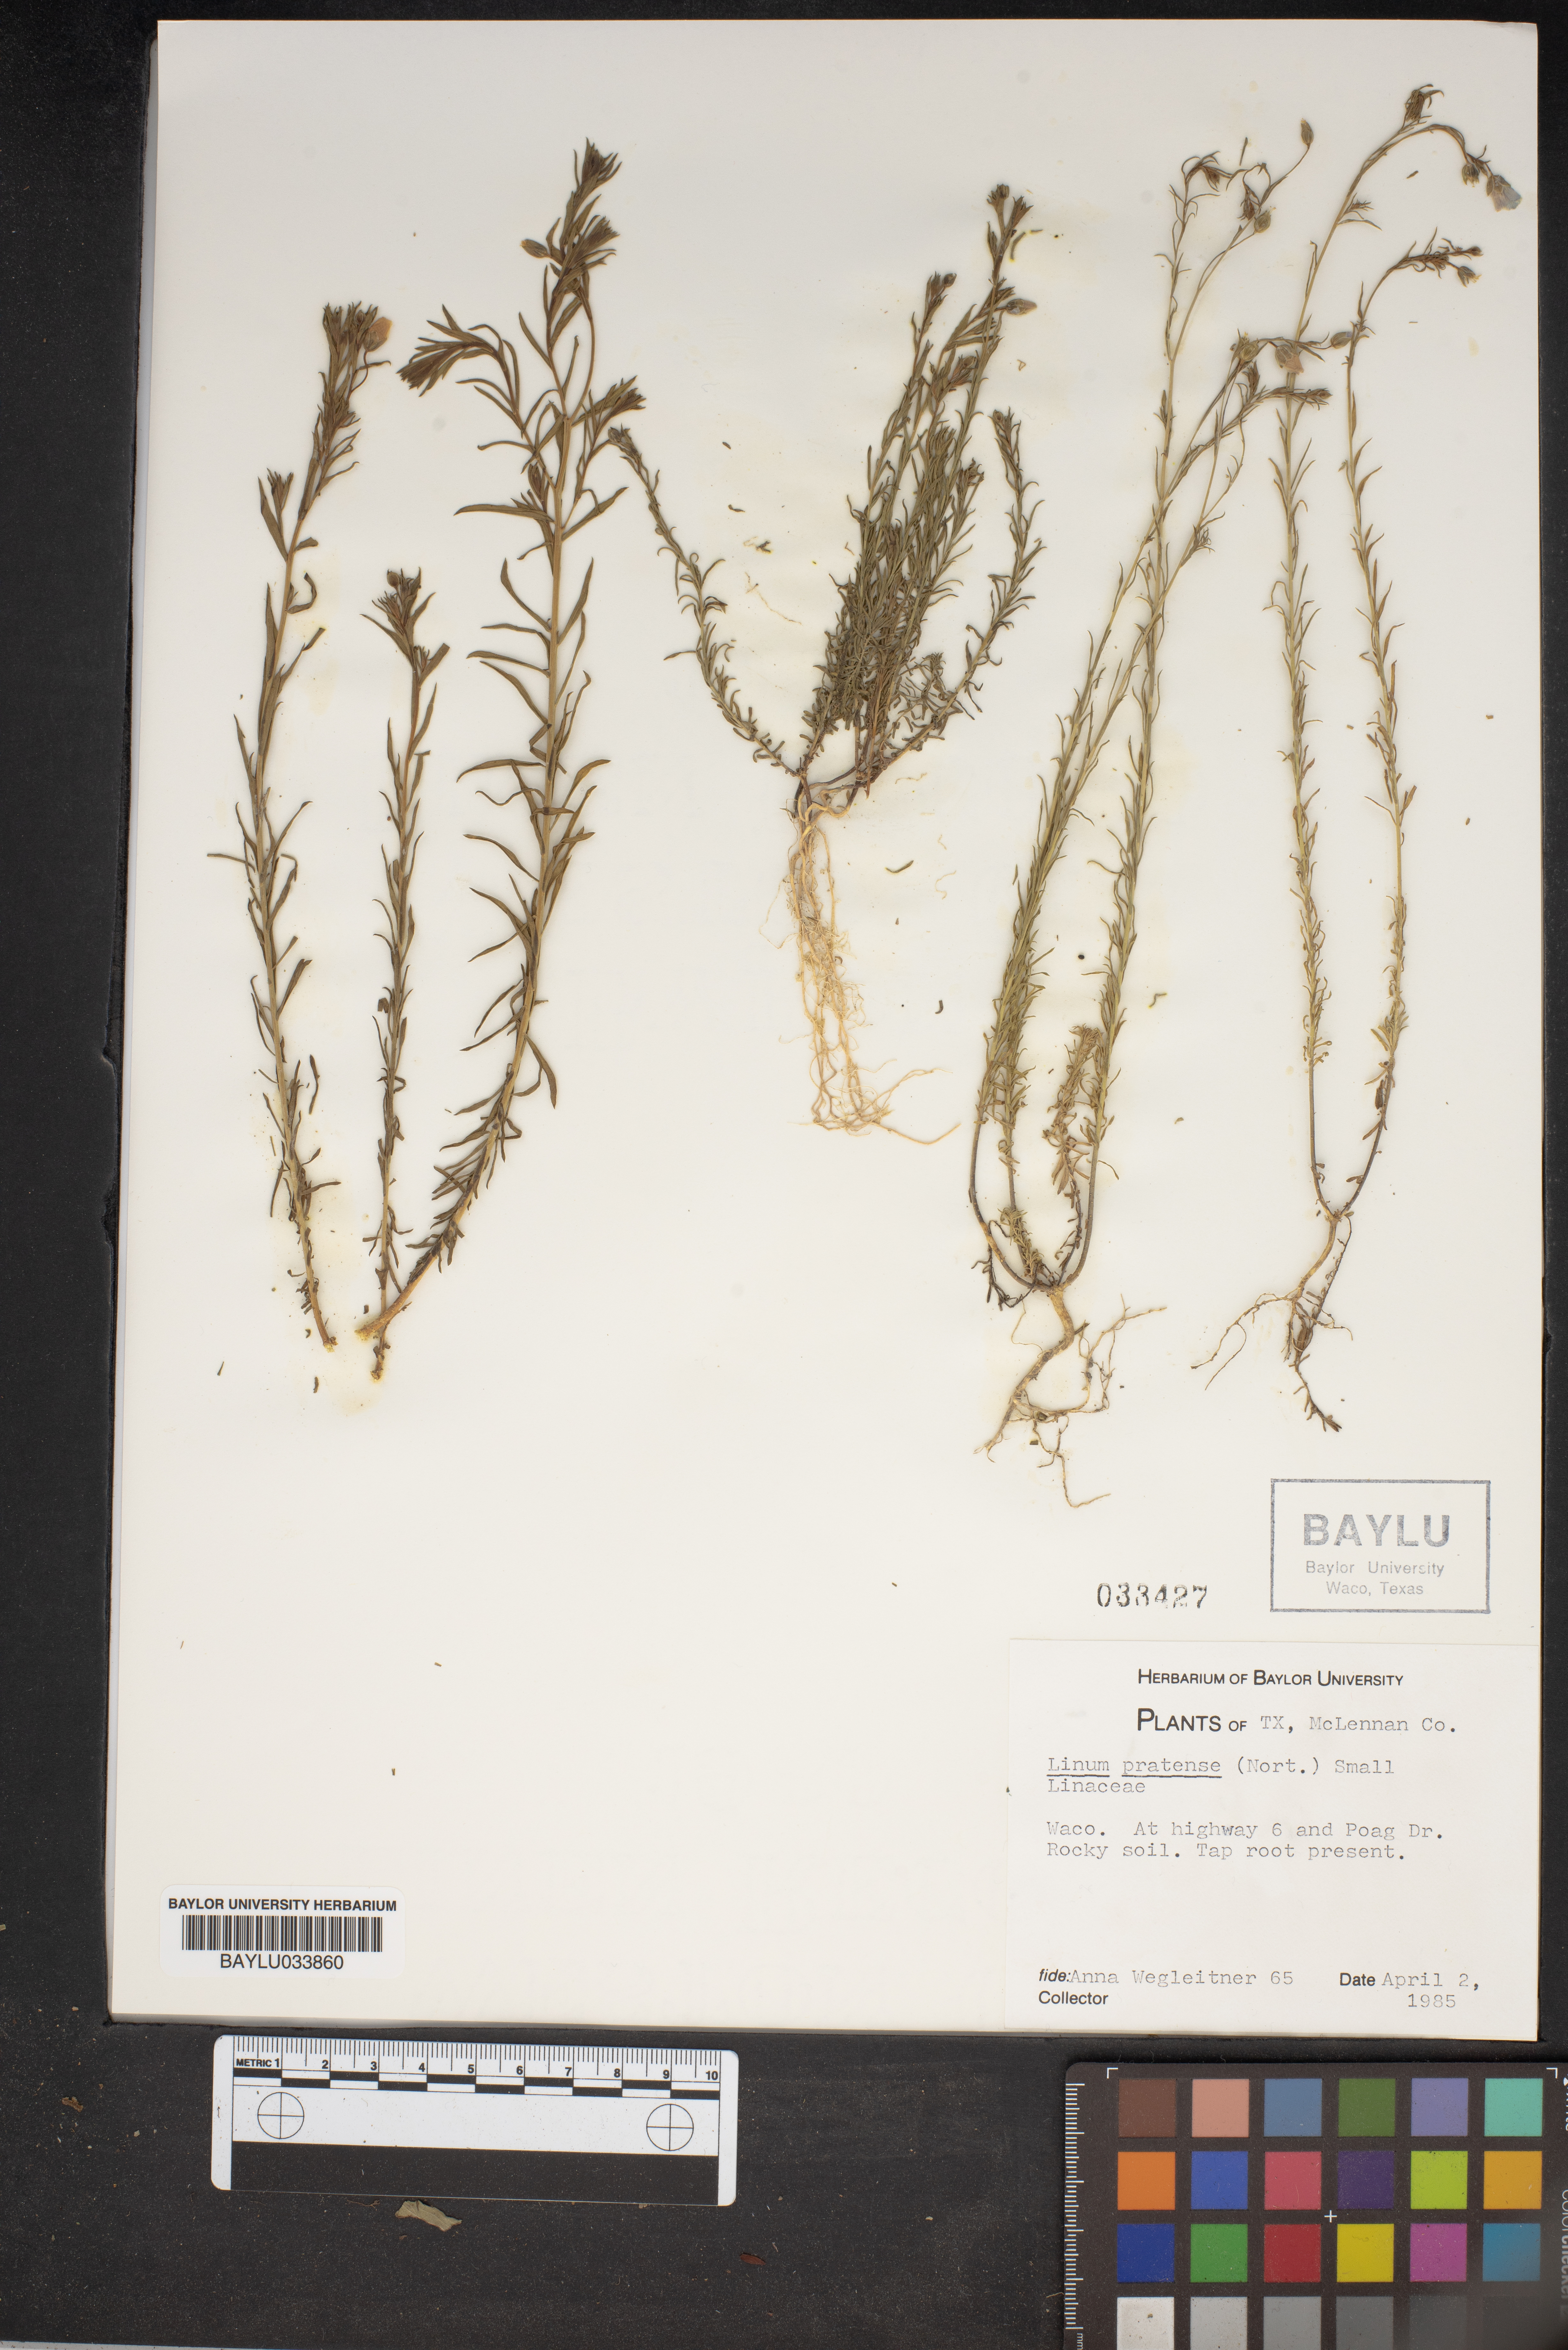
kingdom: Plantae
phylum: Tracheophyta
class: Magnoliopsida
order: Malpighiales
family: Linaceae
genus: Linum
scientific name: Linum pratense
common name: Norton's flax
